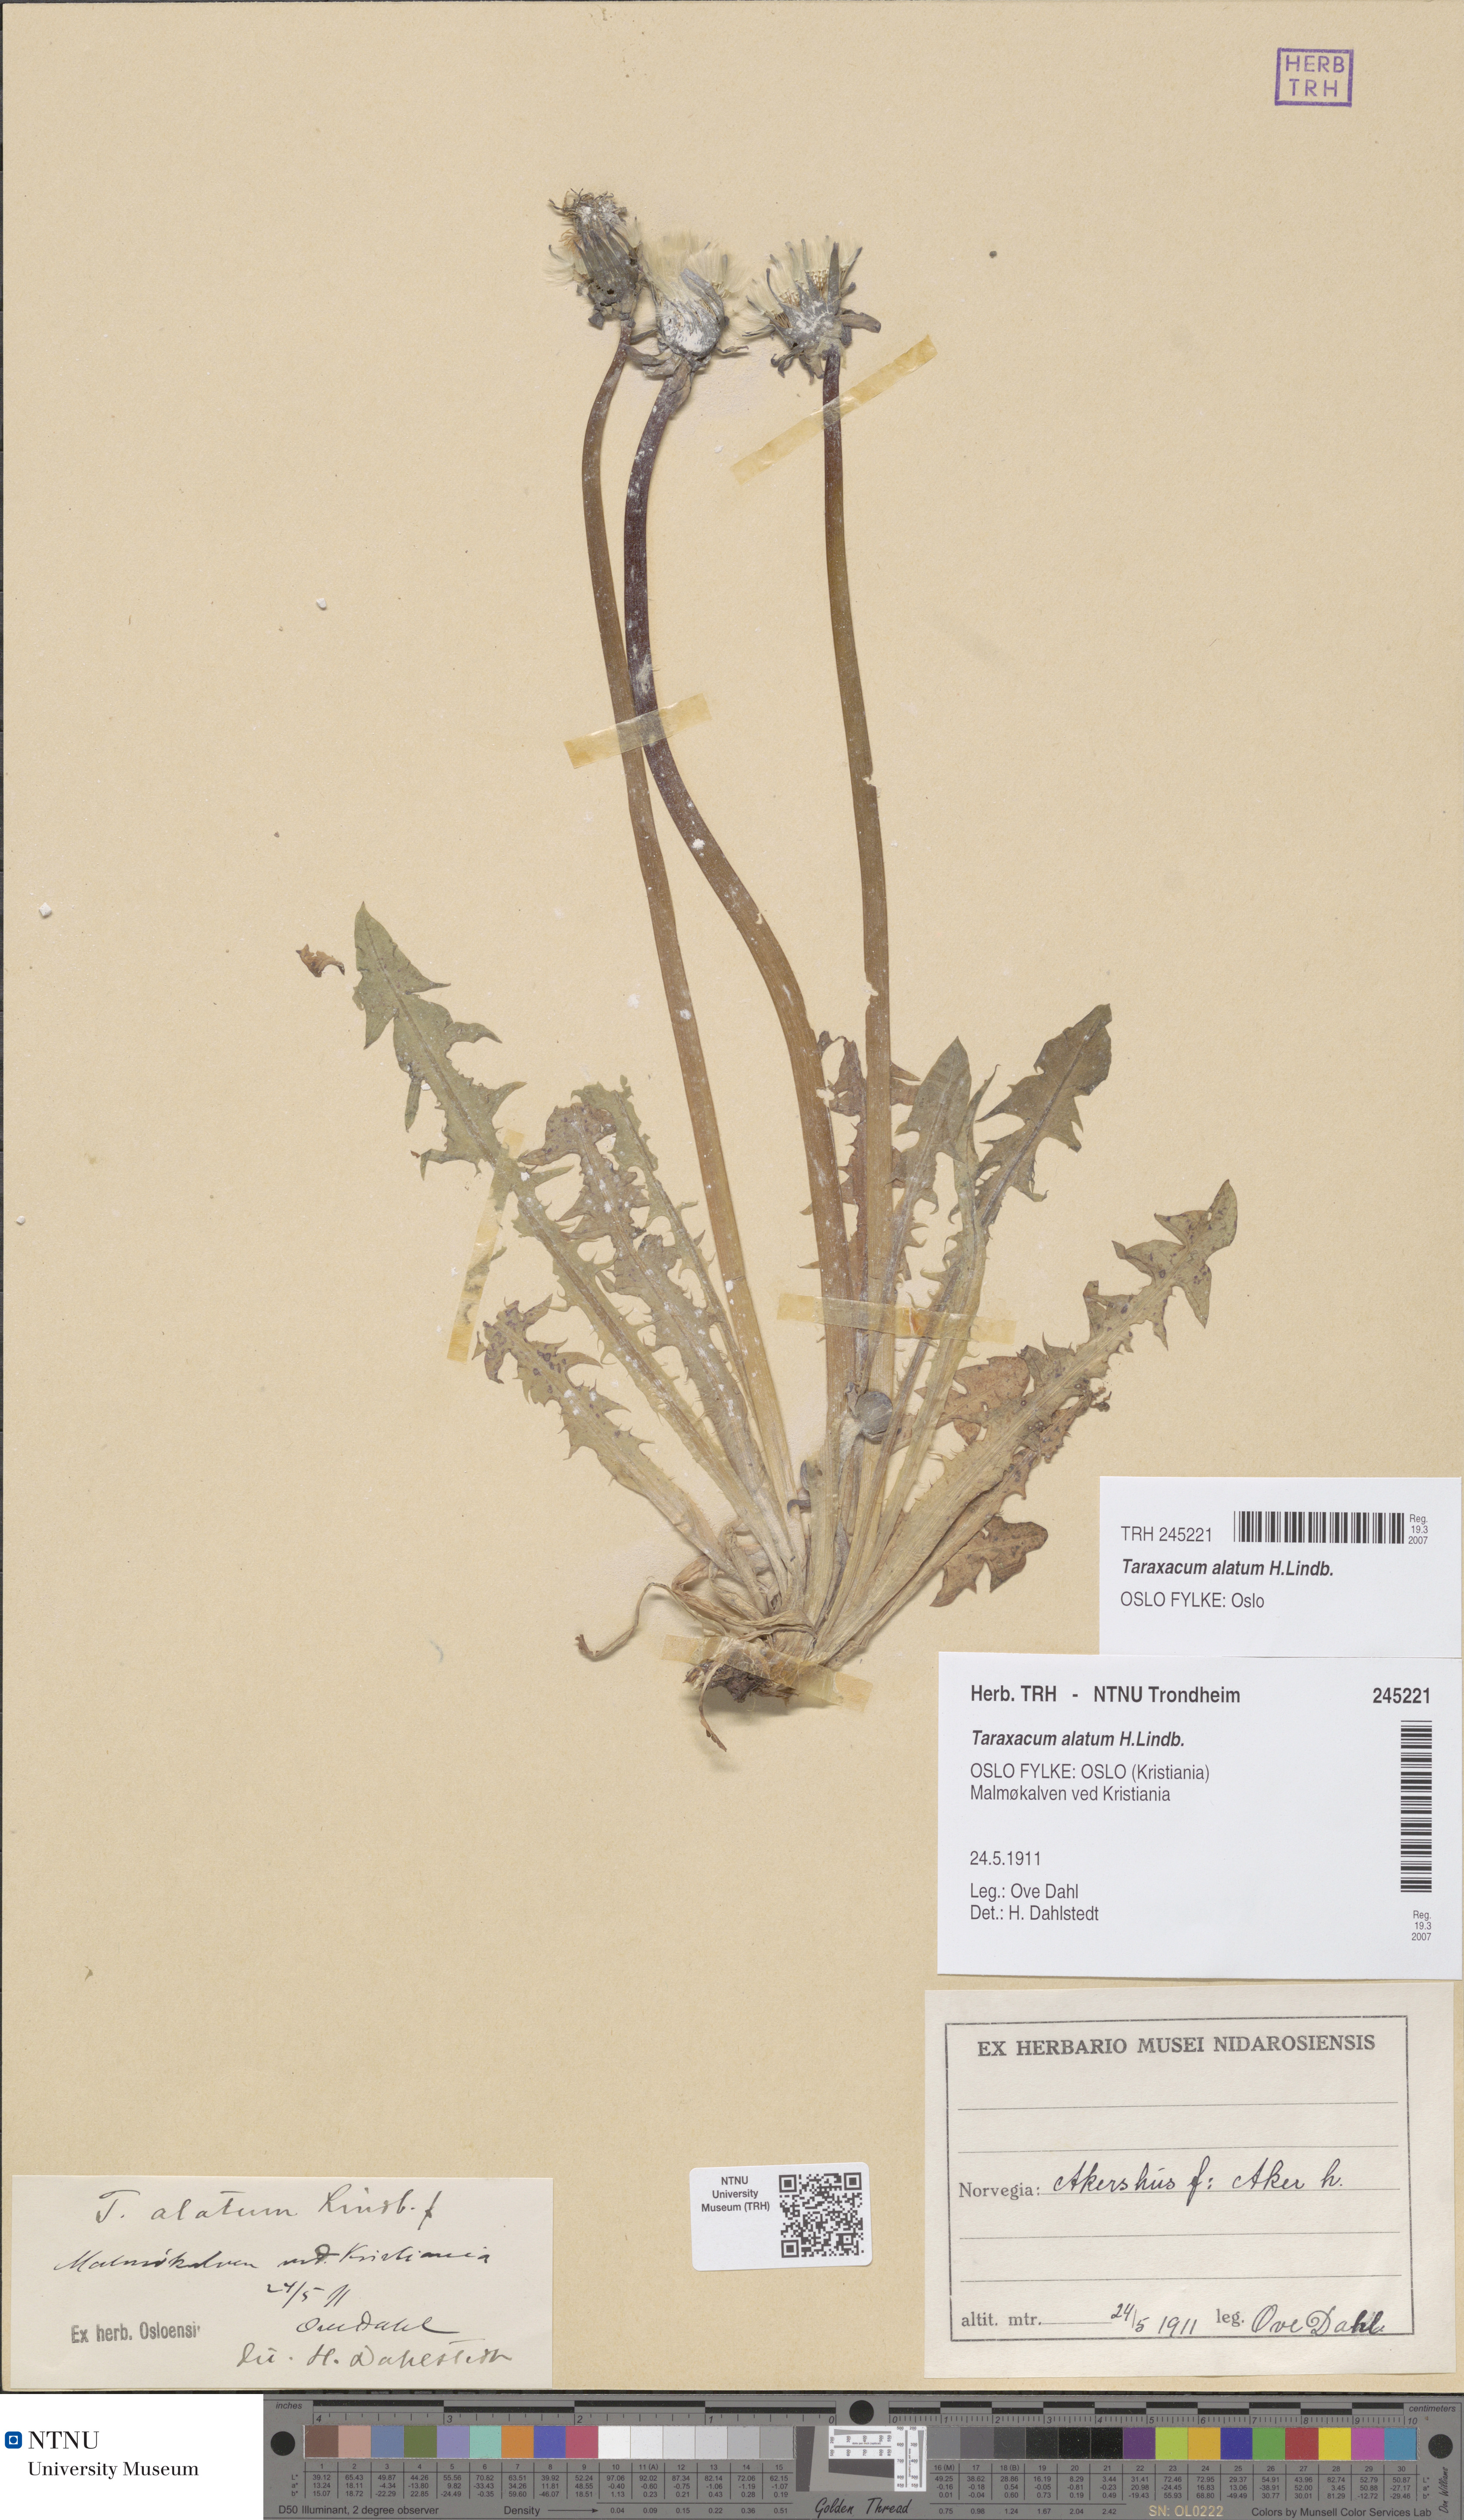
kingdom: Plantae
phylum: Tracheophyta
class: Magnoliopsida
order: Asterales
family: Asteraceae
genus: Taraxacum
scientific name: Taraxacum alatum
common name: Green dandelion
